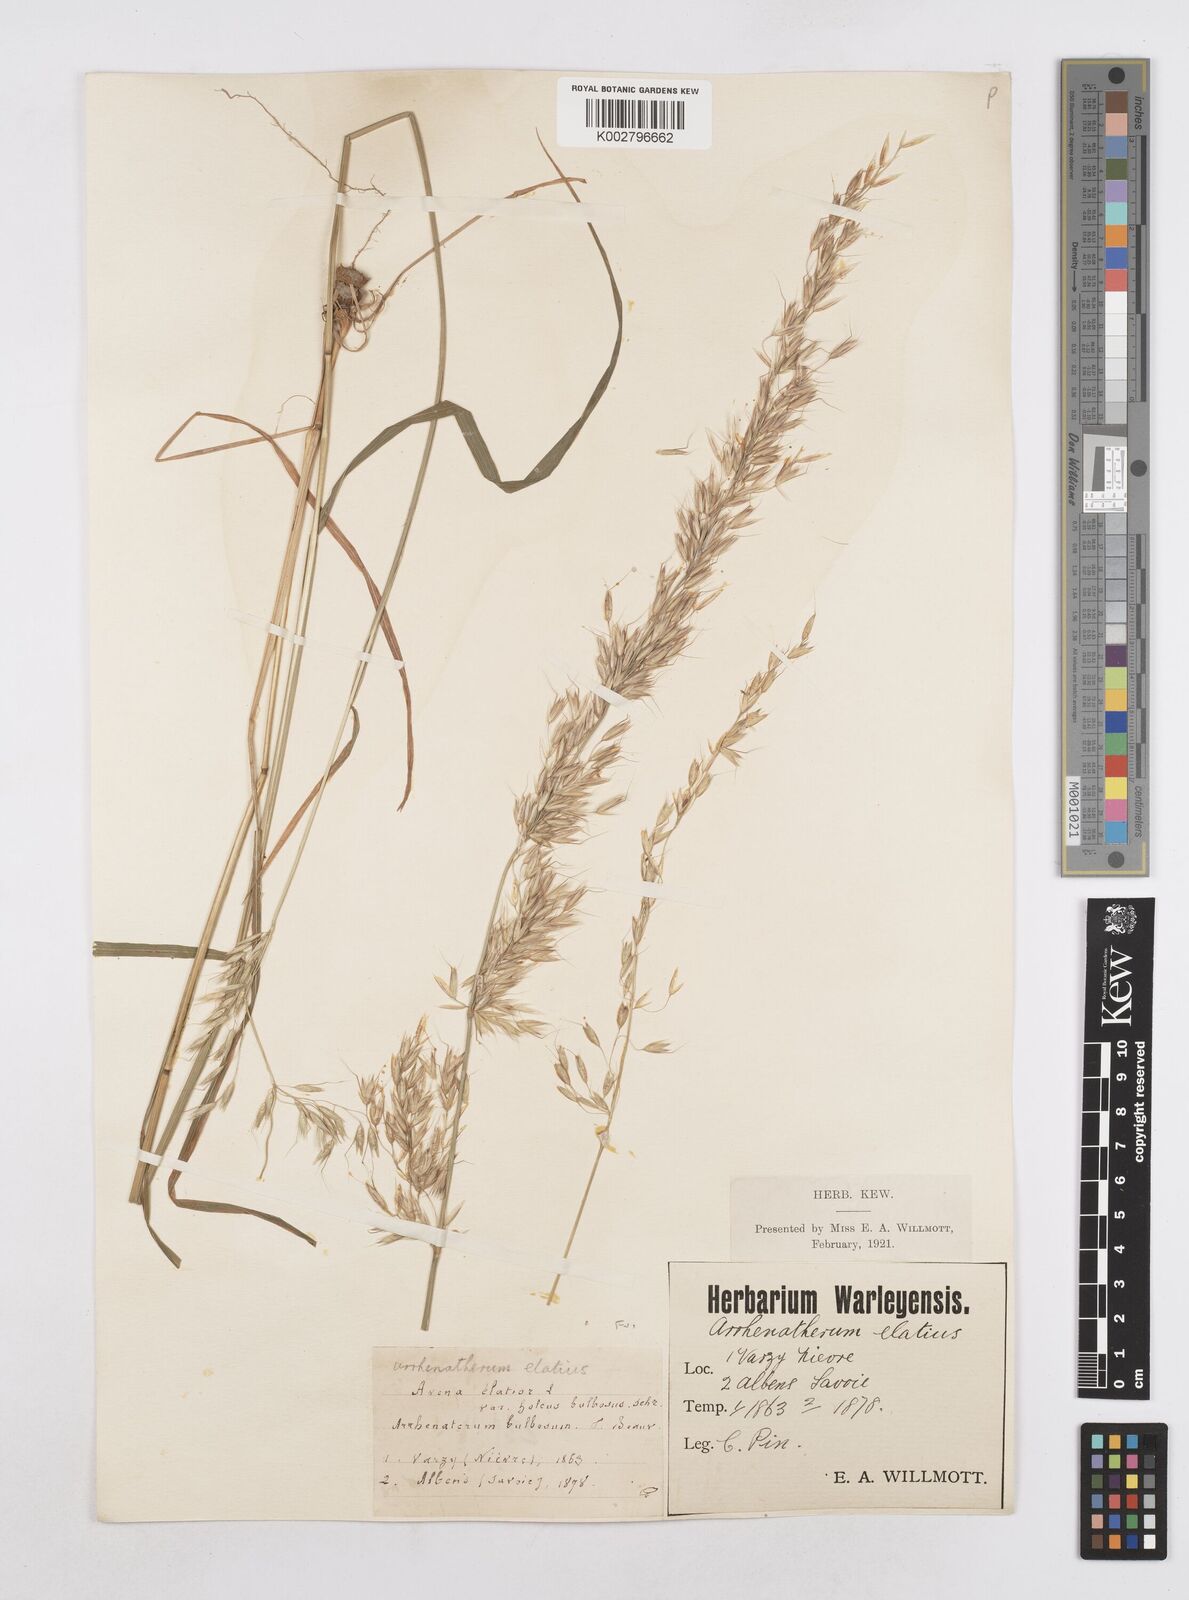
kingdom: Plantae
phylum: Tracheophyta
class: Liliopsida
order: Poales
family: Poaceae
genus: Arrhenatherum
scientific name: Arrhenatherum elatius
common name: Tall oatgrass
